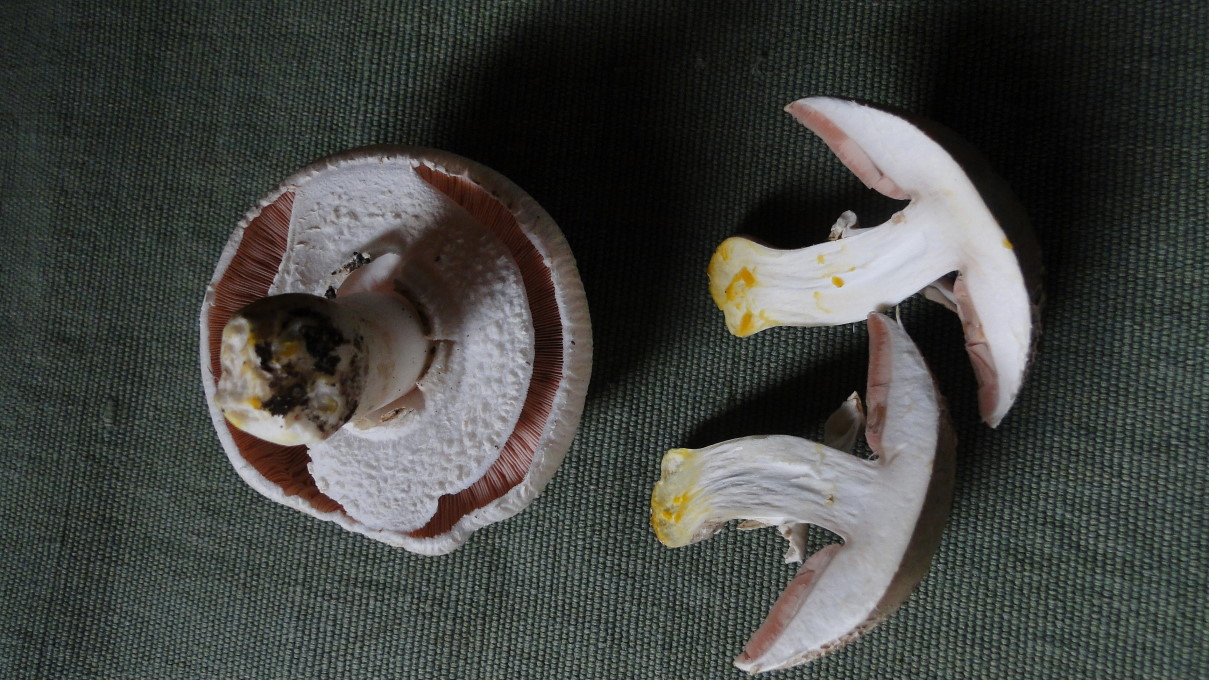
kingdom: Fungi
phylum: Basidiomycota
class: Agaricomycetes
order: Agaricales
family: Agaricaceae
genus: Agaricus
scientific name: Agaricus xanthodermus
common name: karbol-champignon
